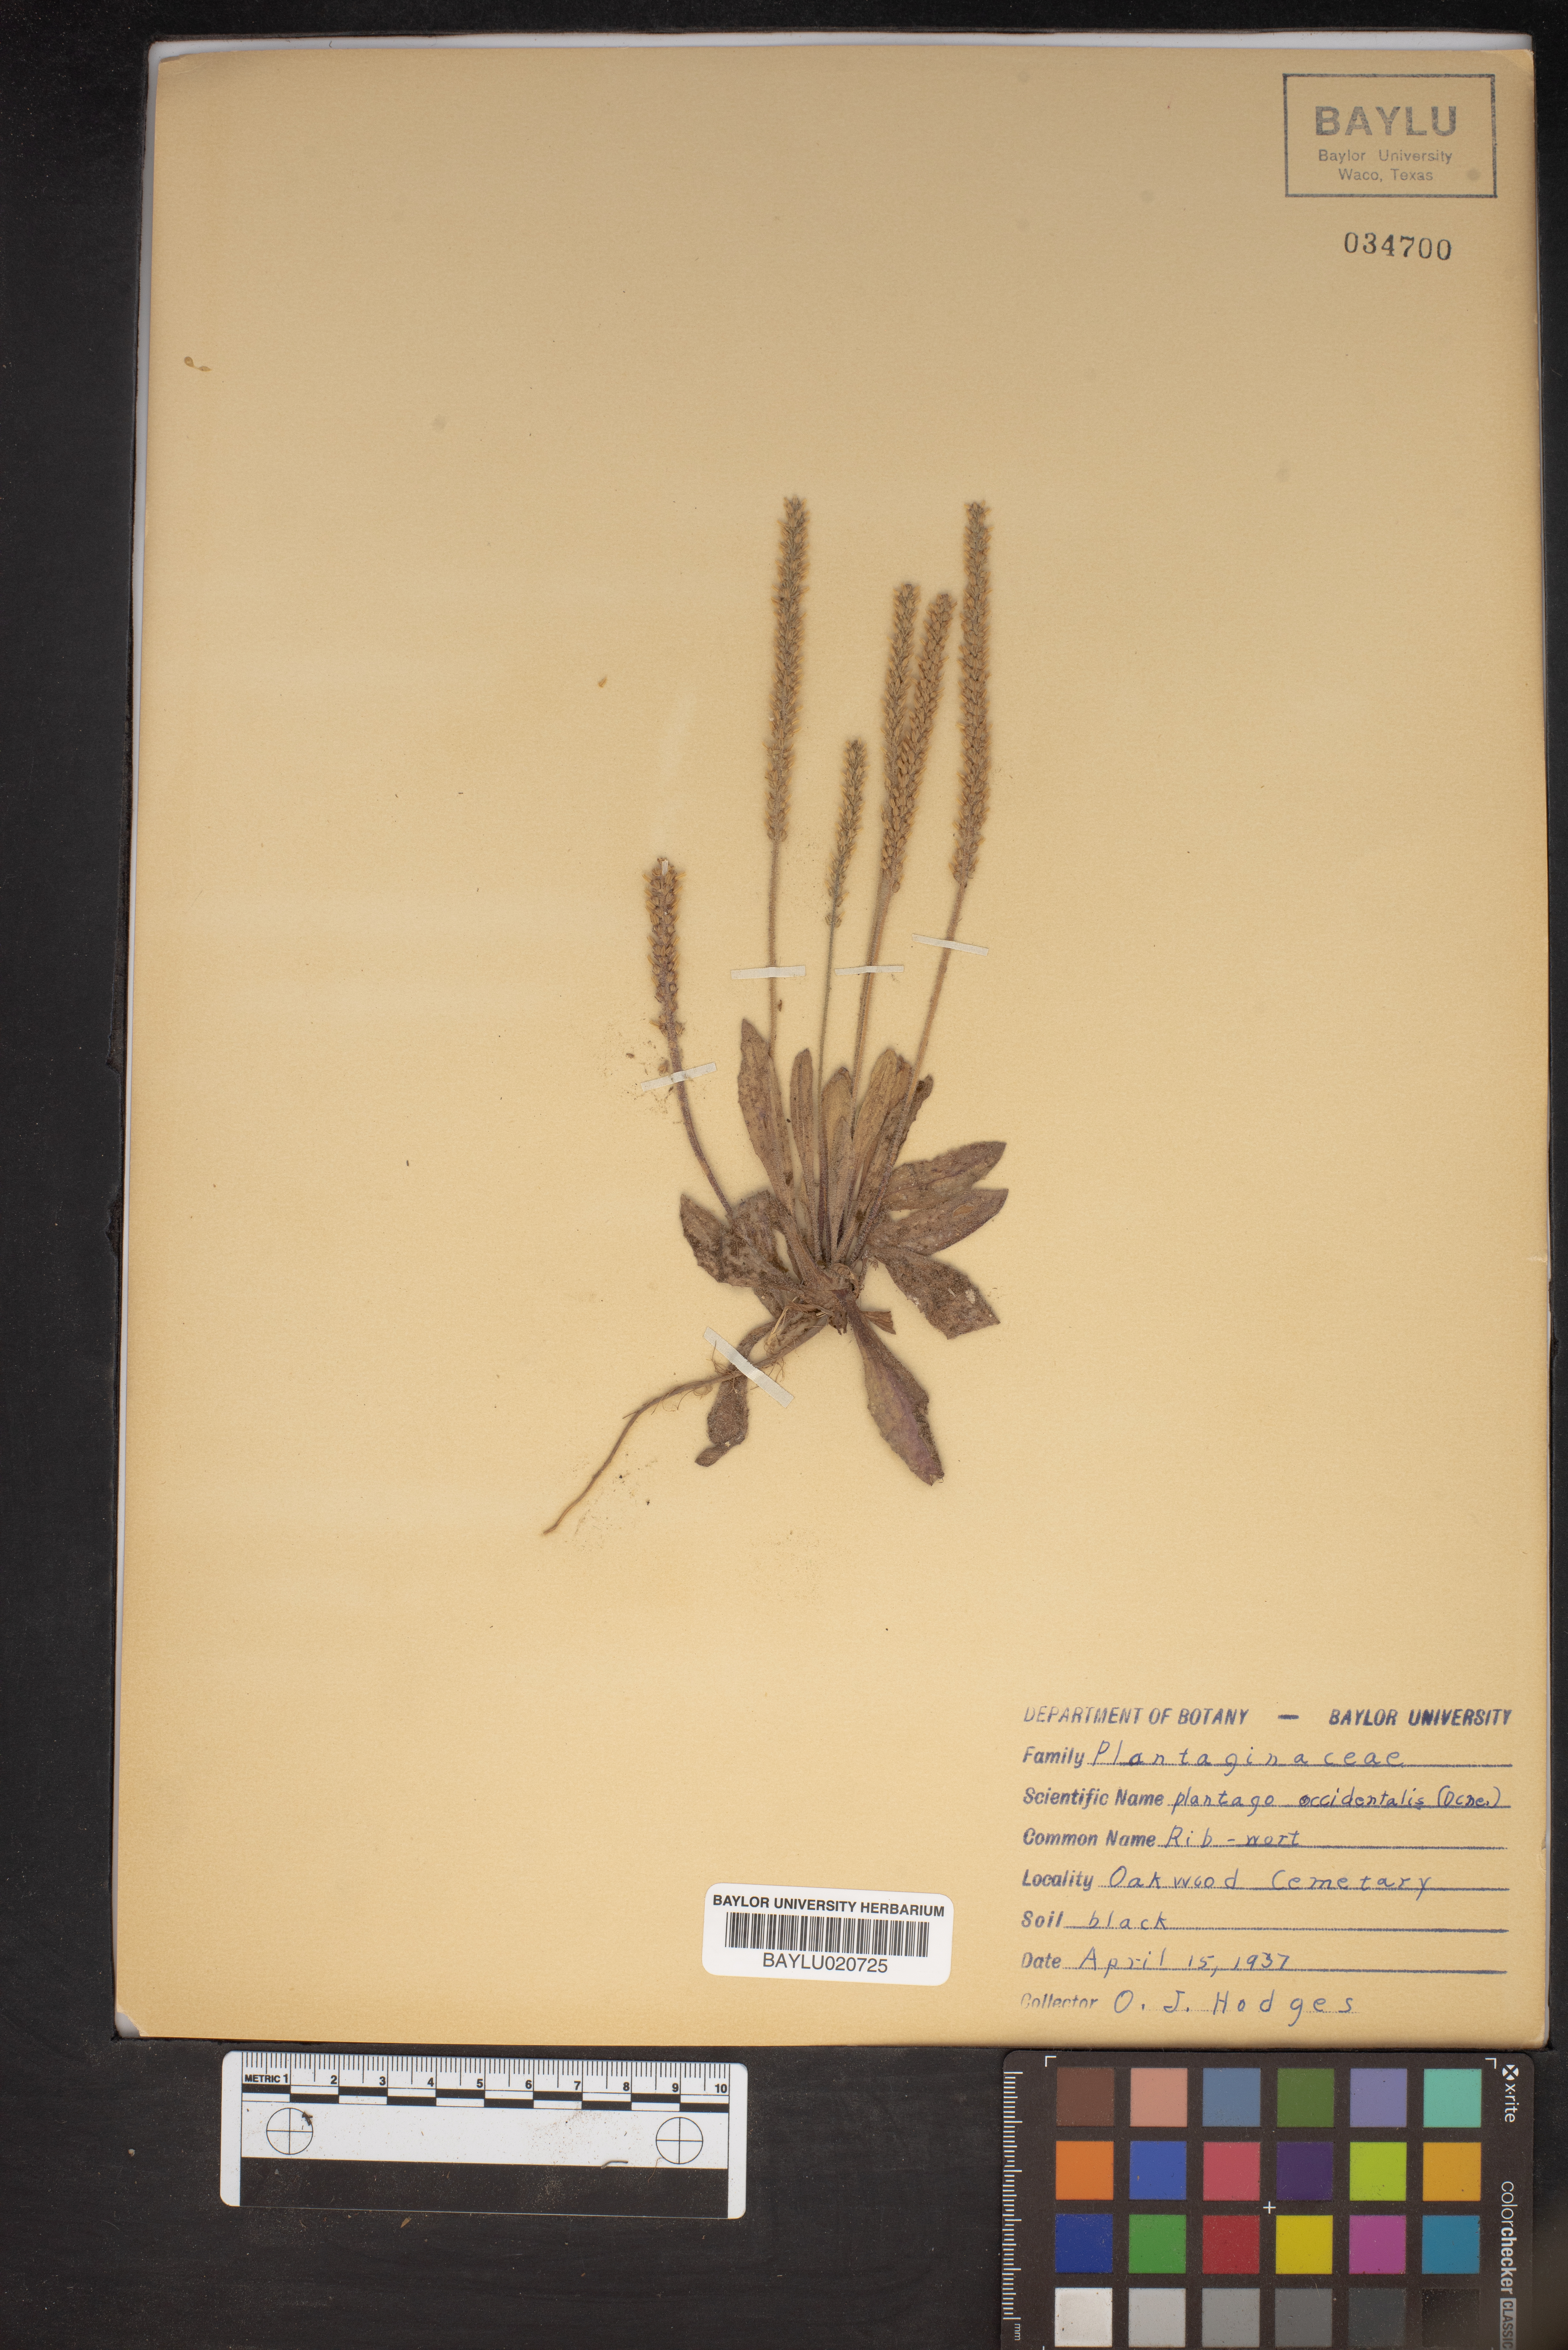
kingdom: Plantae
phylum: Tracheophyta
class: Magnoliopsida
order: Lamiales
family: Plantaginaceae
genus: Plantago
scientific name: Plantago myosuros
